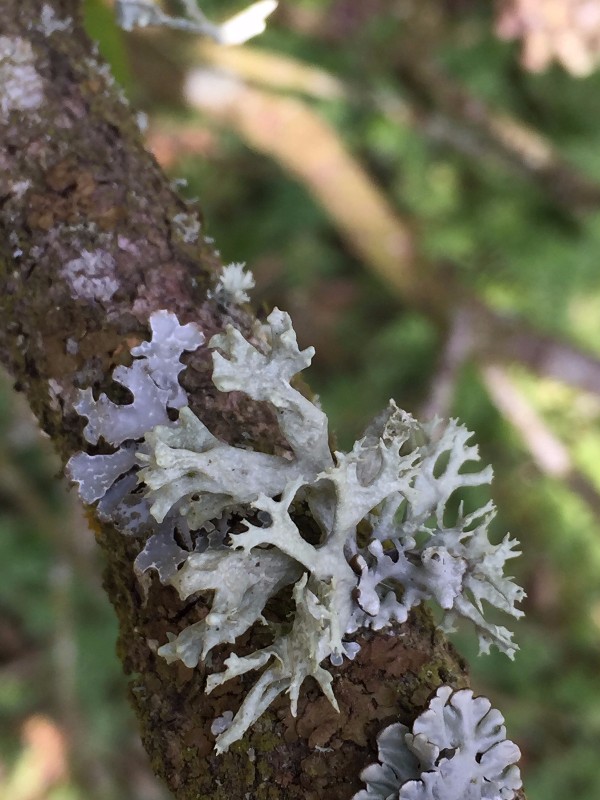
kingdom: Fungi
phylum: Ascomycota
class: Lecanoromycetes
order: Lecanorales
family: Ramalinaceae
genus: Ramalina
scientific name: Ramalina fastigiata
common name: tue-grenlav
